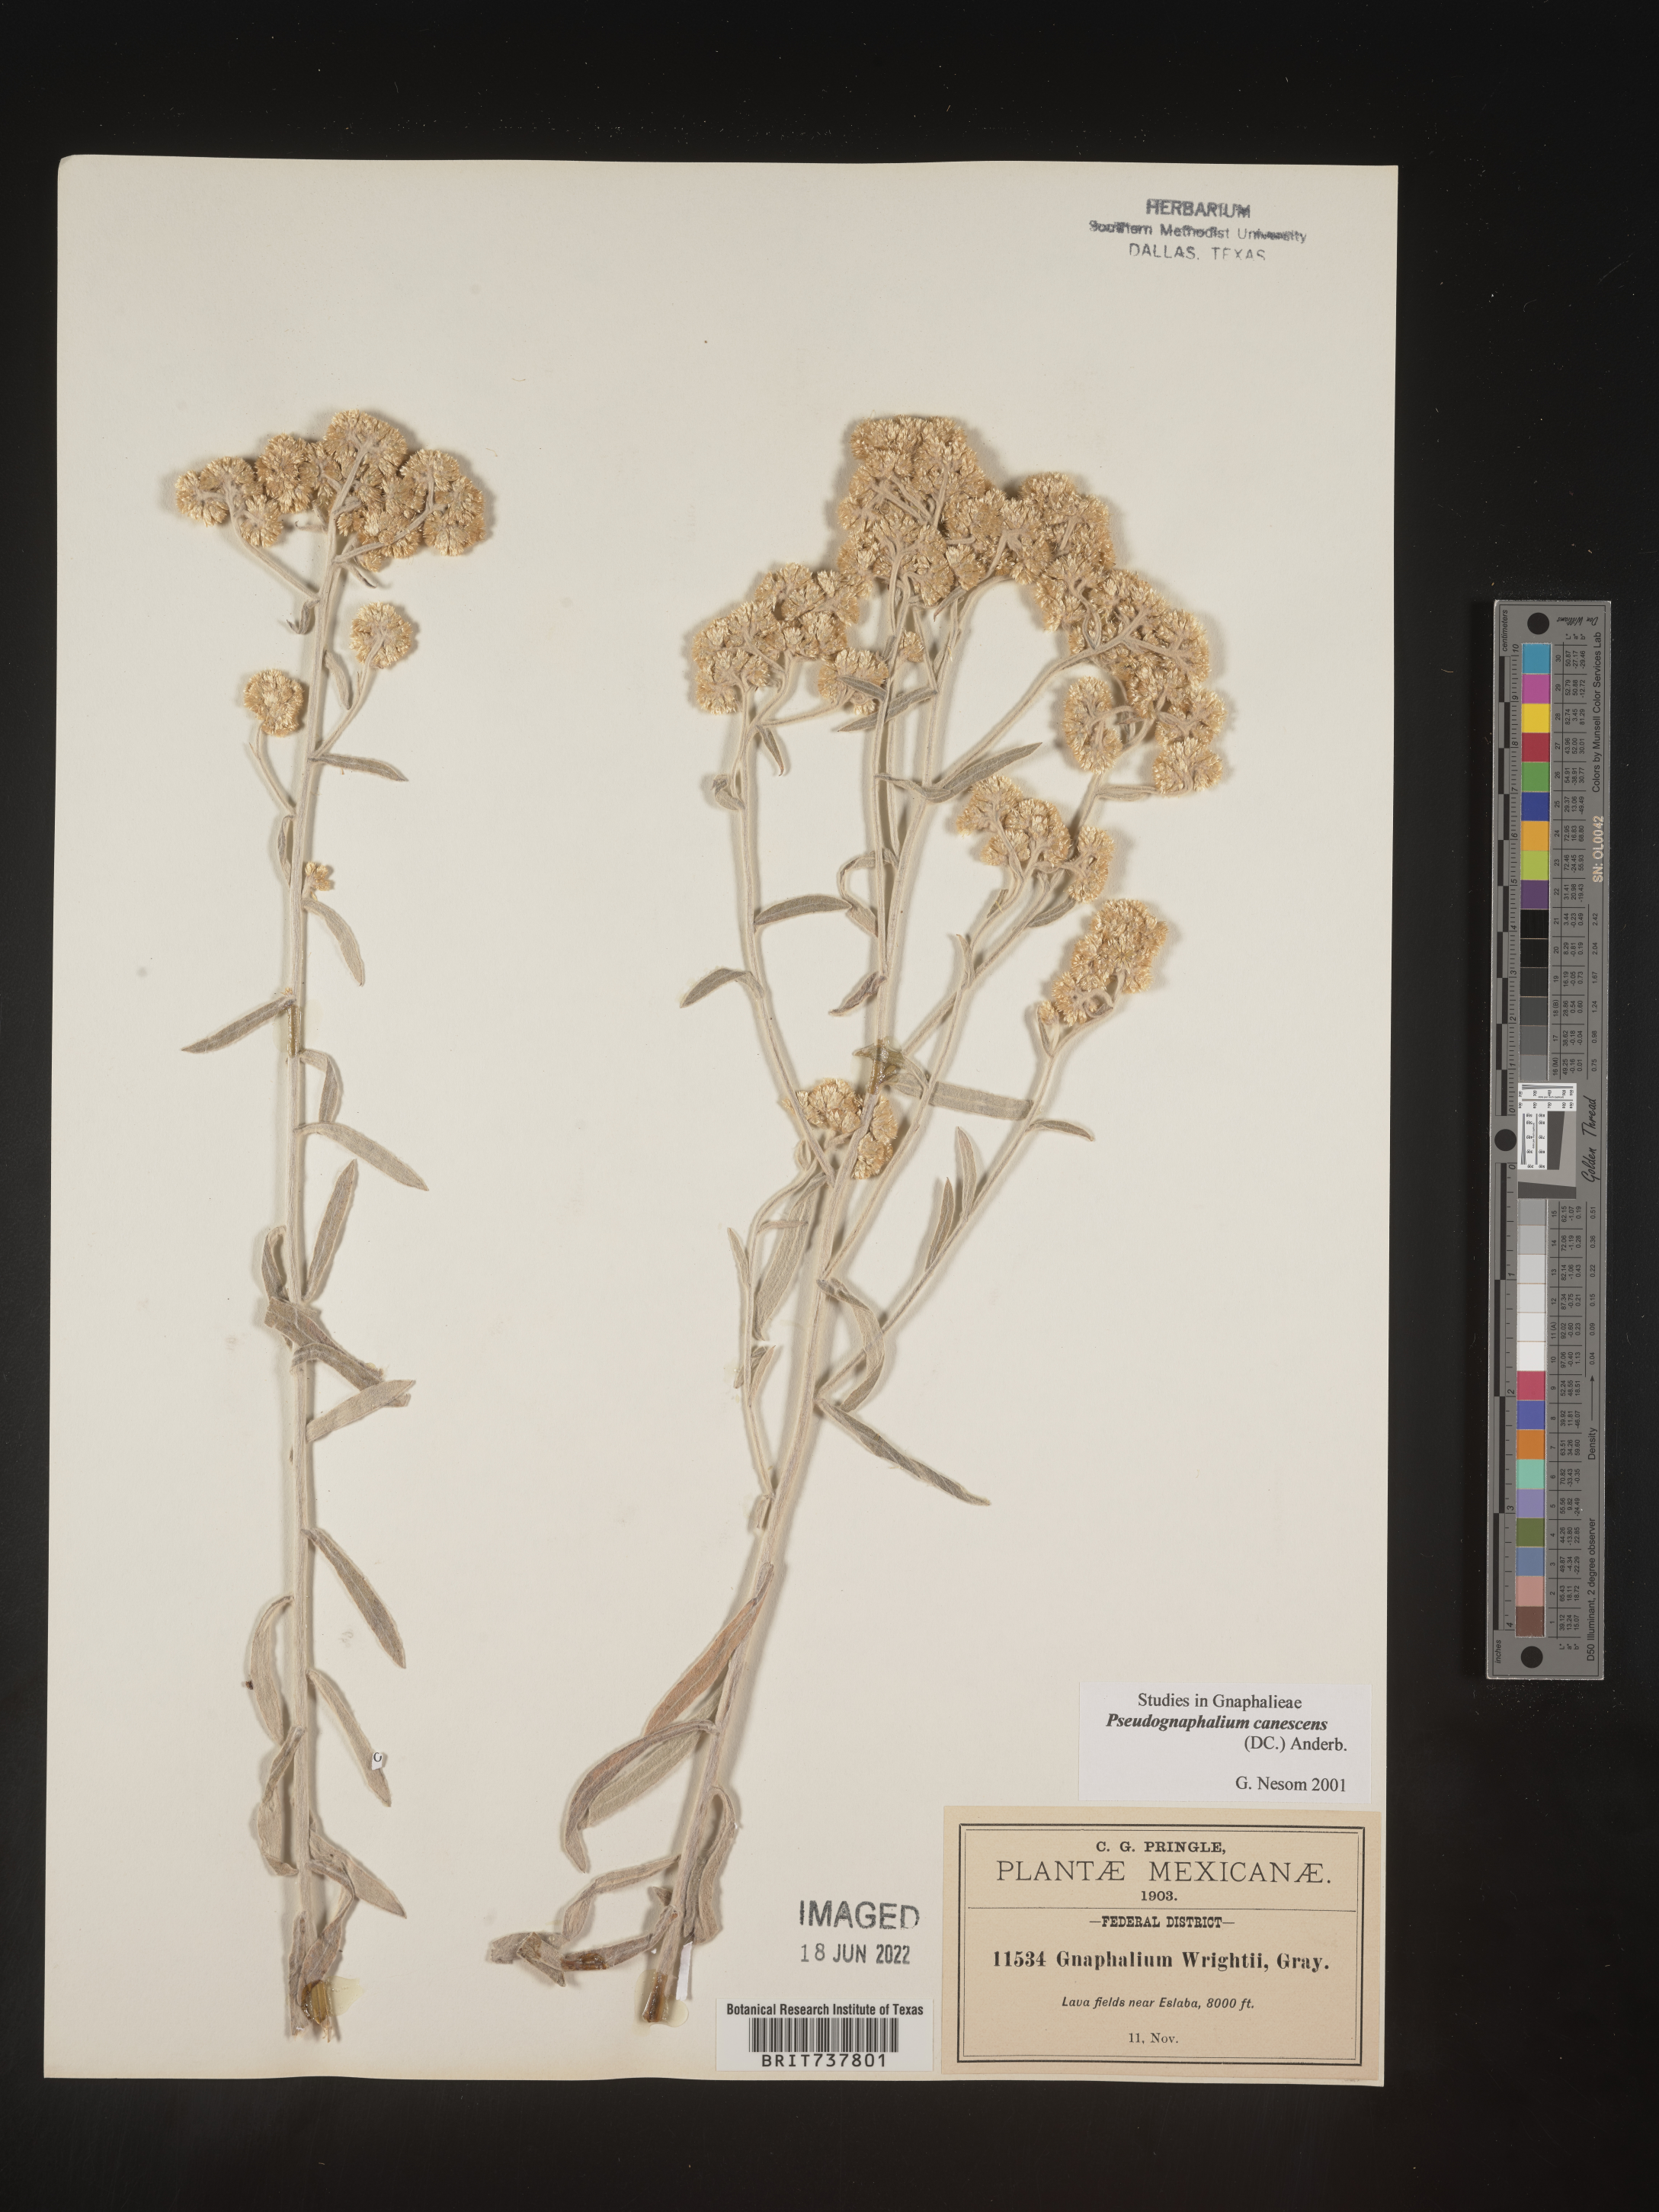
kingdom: Plantae
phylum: Tracheophyta
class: Magnoliopsida
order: Asterales
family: Asteraceae
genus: Pseudognaphalium
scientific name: Pseudognaphalium canescens
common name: Wright's rabbit-tobacco
